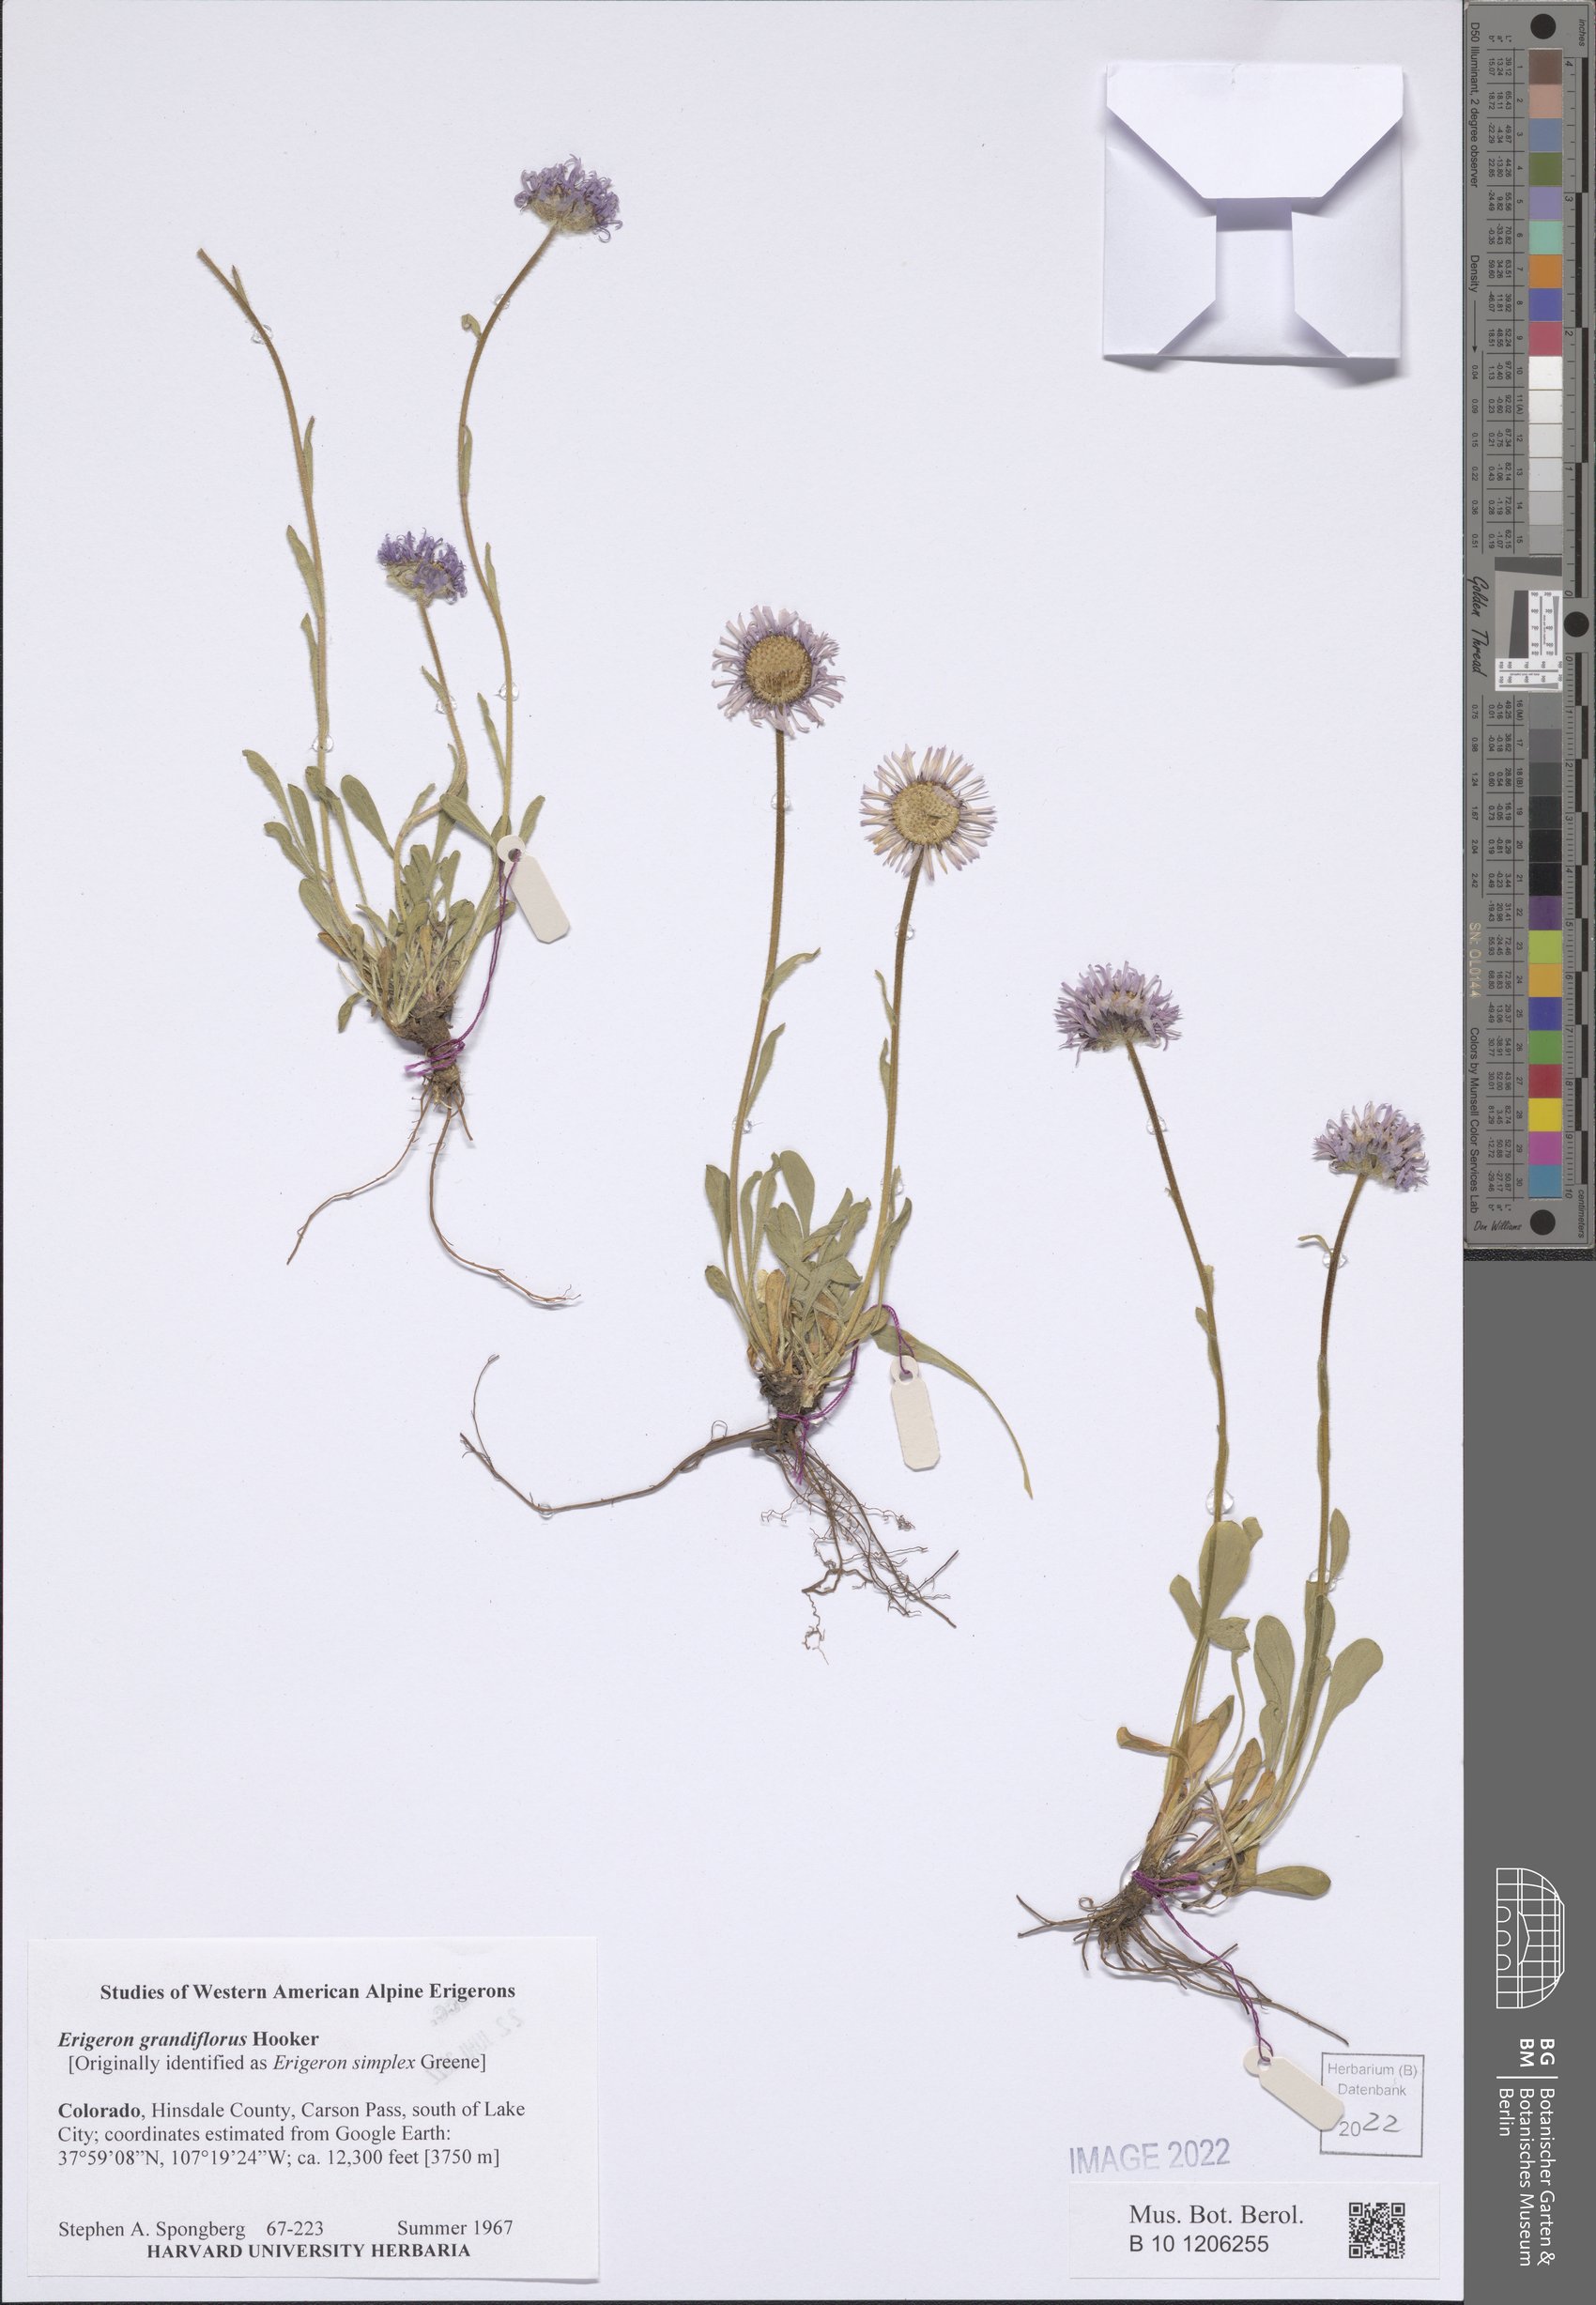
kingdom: Plantae
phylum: Tracheophyta
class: Magnoliopsida
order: Asterales
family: Asteraceae
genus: Erigeron
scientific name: Erigeron grandiflorus
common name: Rocky mountain alpine fleabane
